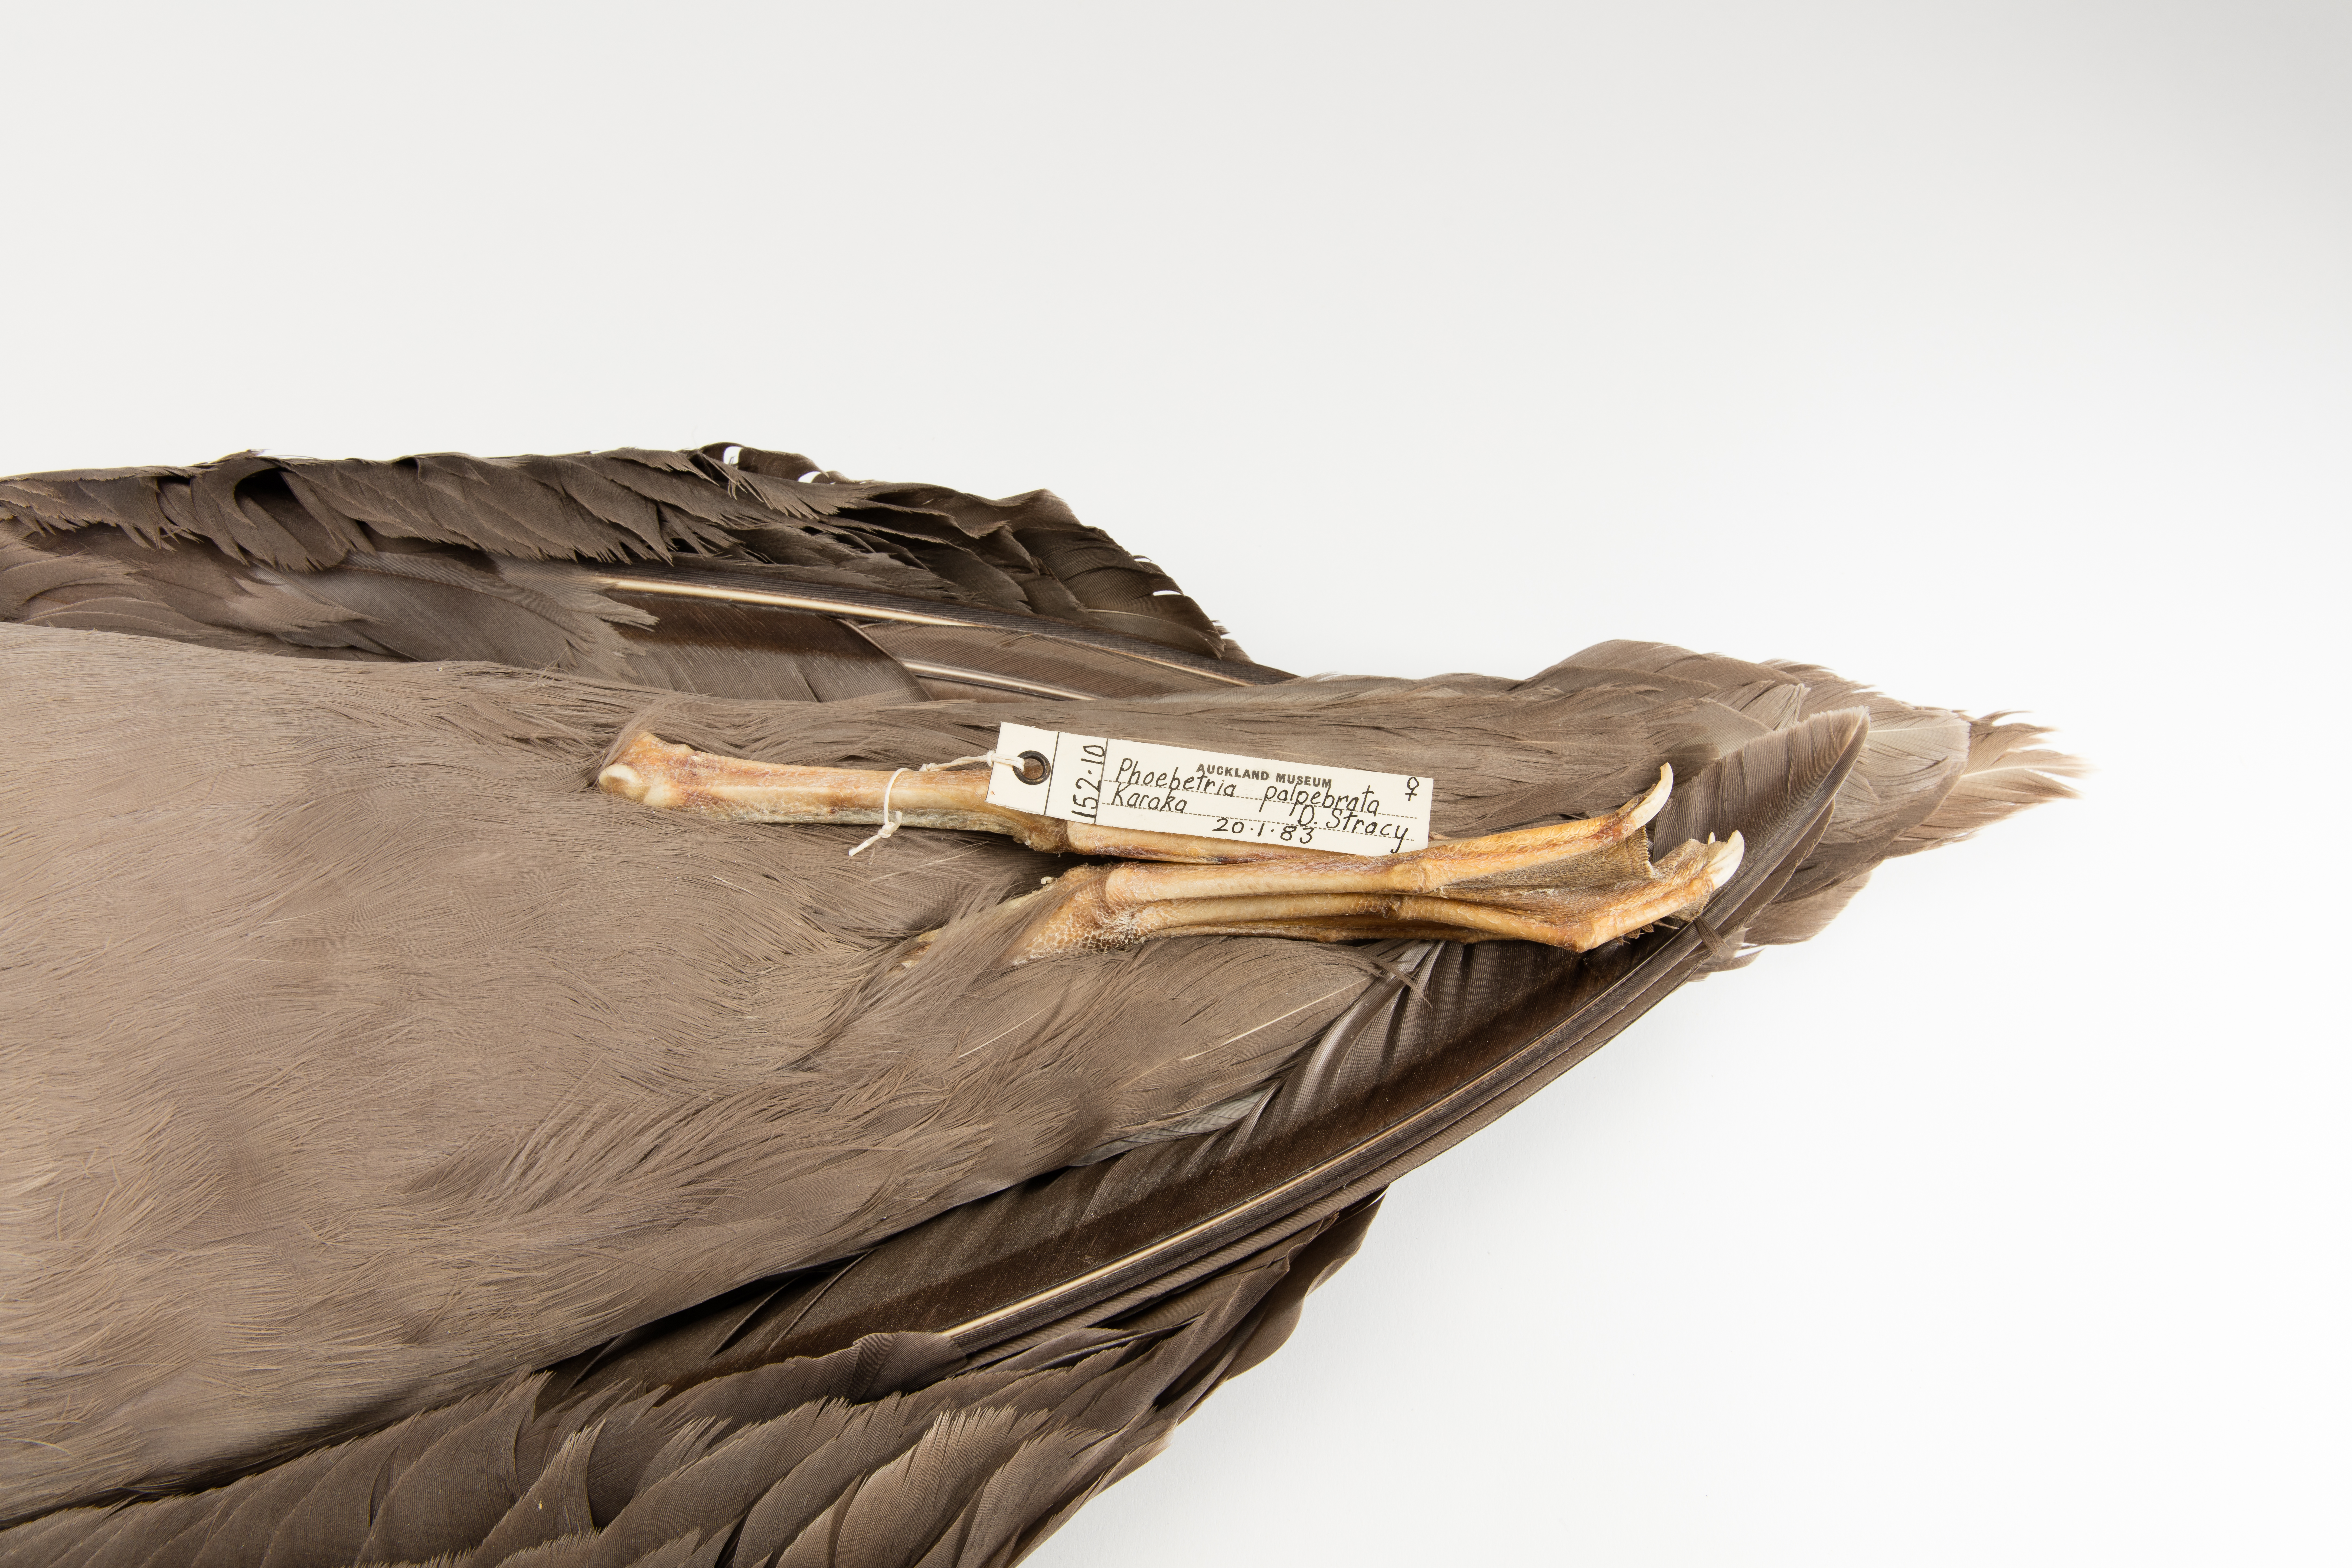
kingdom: Animalia
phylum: Chordata
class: Aves
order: Procellariiformes
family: Diomedeidae
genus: Phoebetria
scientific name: Phoebetria palpebrata
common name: Light-mantled albatross
